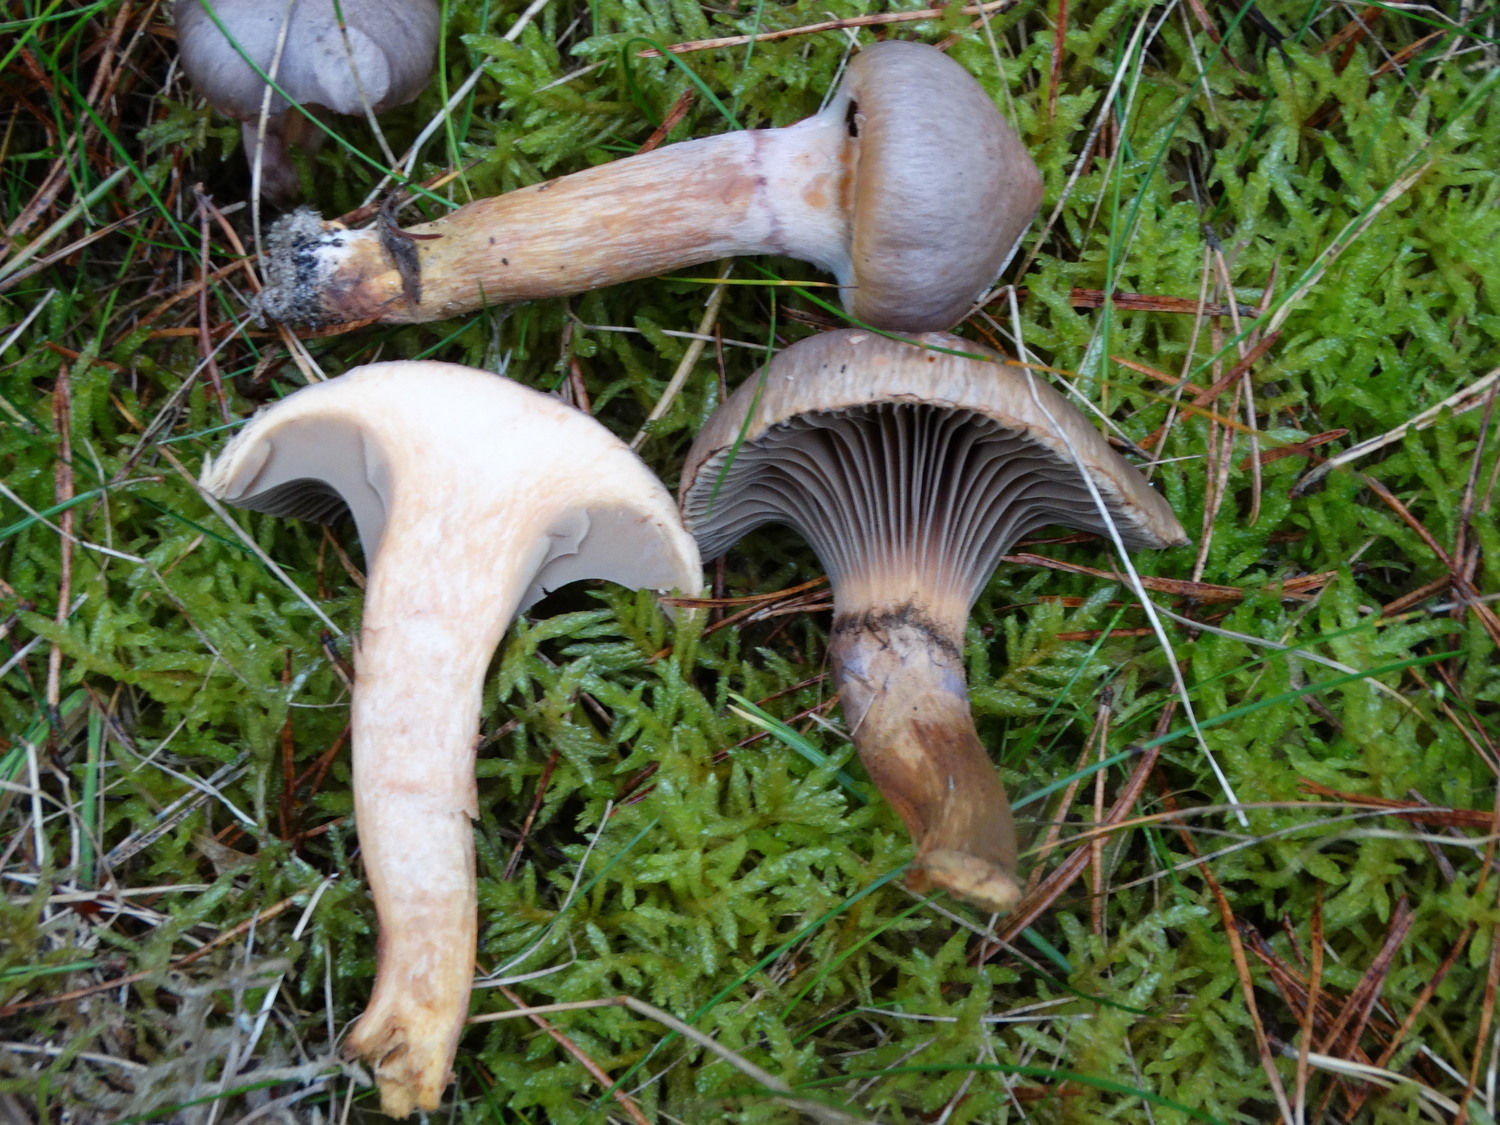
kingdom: Fungi
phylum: Basidiomycota
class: Agaricomycetes
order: Boletales
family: Gomphidiaceae
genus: Chroogomphus
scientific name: Chroogomphus rutilus
